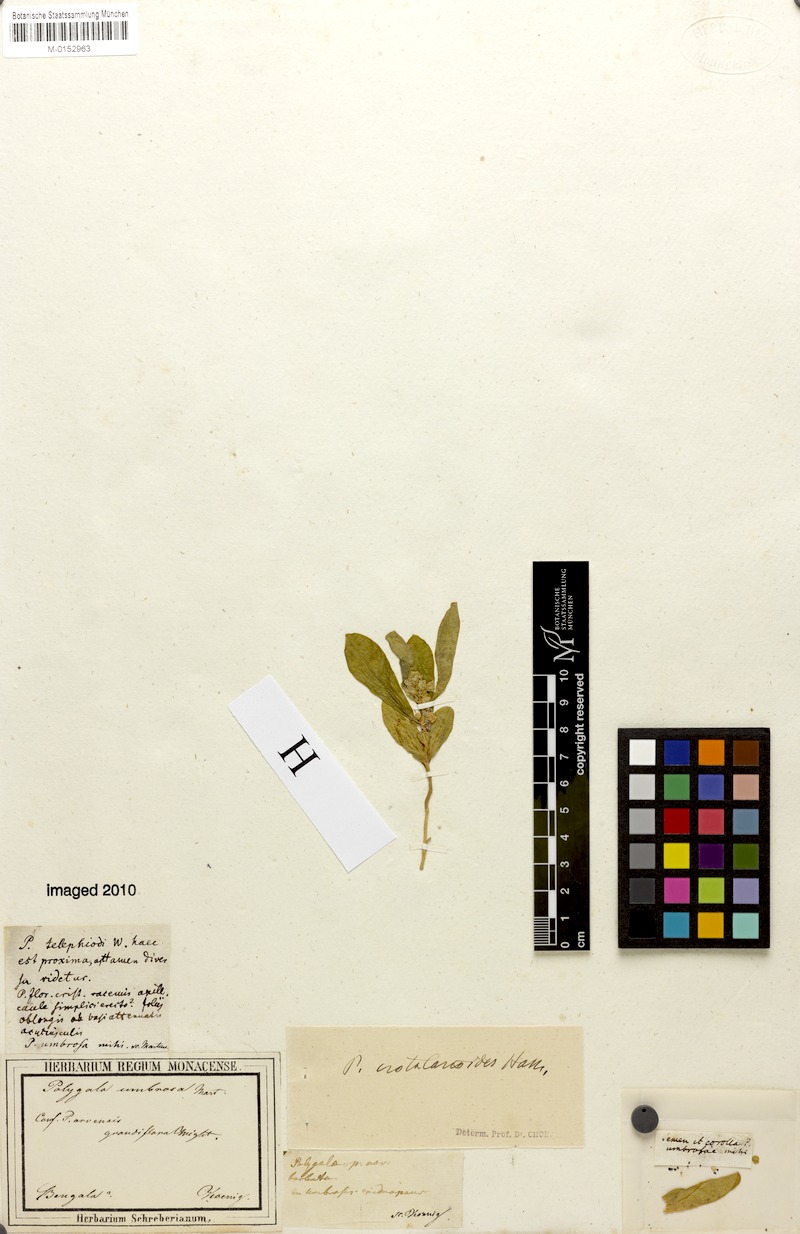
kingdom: Plantae
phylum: Tracheophyta
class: Magnoliopsida
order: Fabales
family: Polygalaceae
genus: Polygala
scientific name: Polygala crotalarioides
